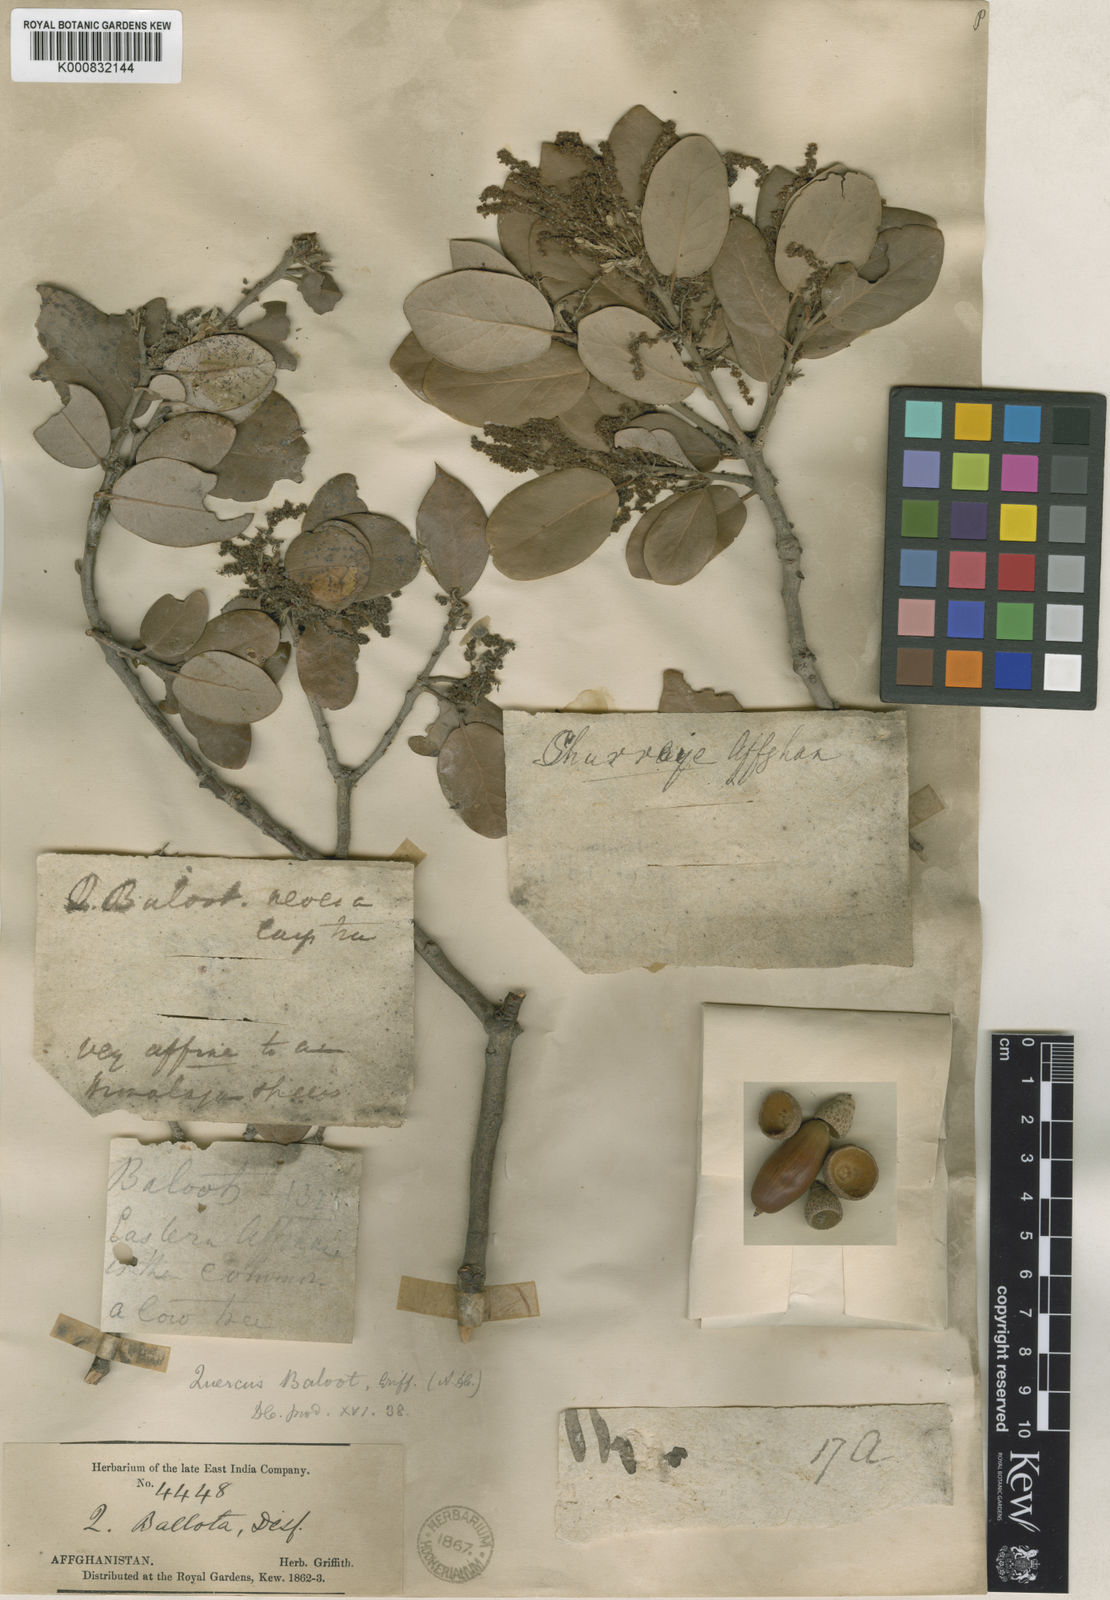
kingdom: Plantae
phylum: Tracheophyta
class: Magnoliopsida
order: Fagales
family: Fagaceae
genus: Quercus
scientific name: Quercus baloot
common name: Holm oak
